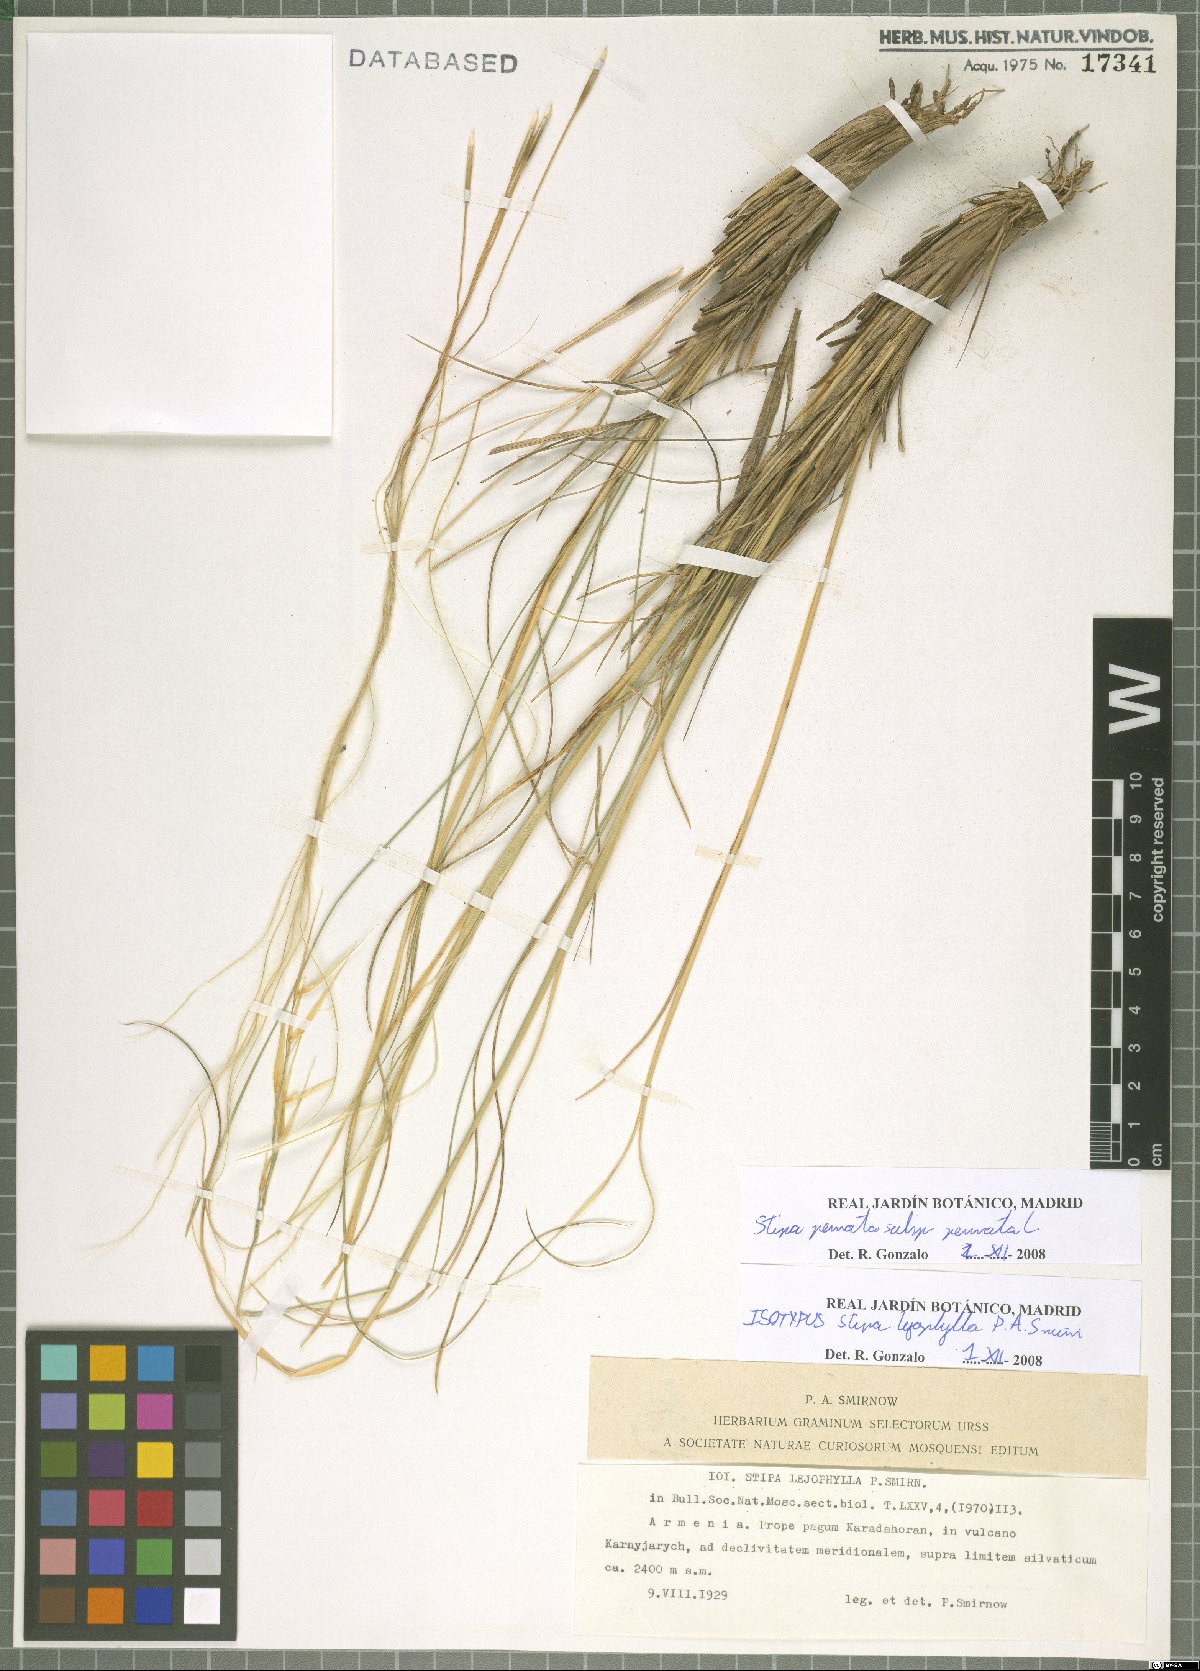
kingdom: Plantae
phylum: Tracheophyta
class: Liliopsida
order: Poales
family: Poaceae
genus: Stipa
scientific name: Stipa pennata
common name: European feather grass
